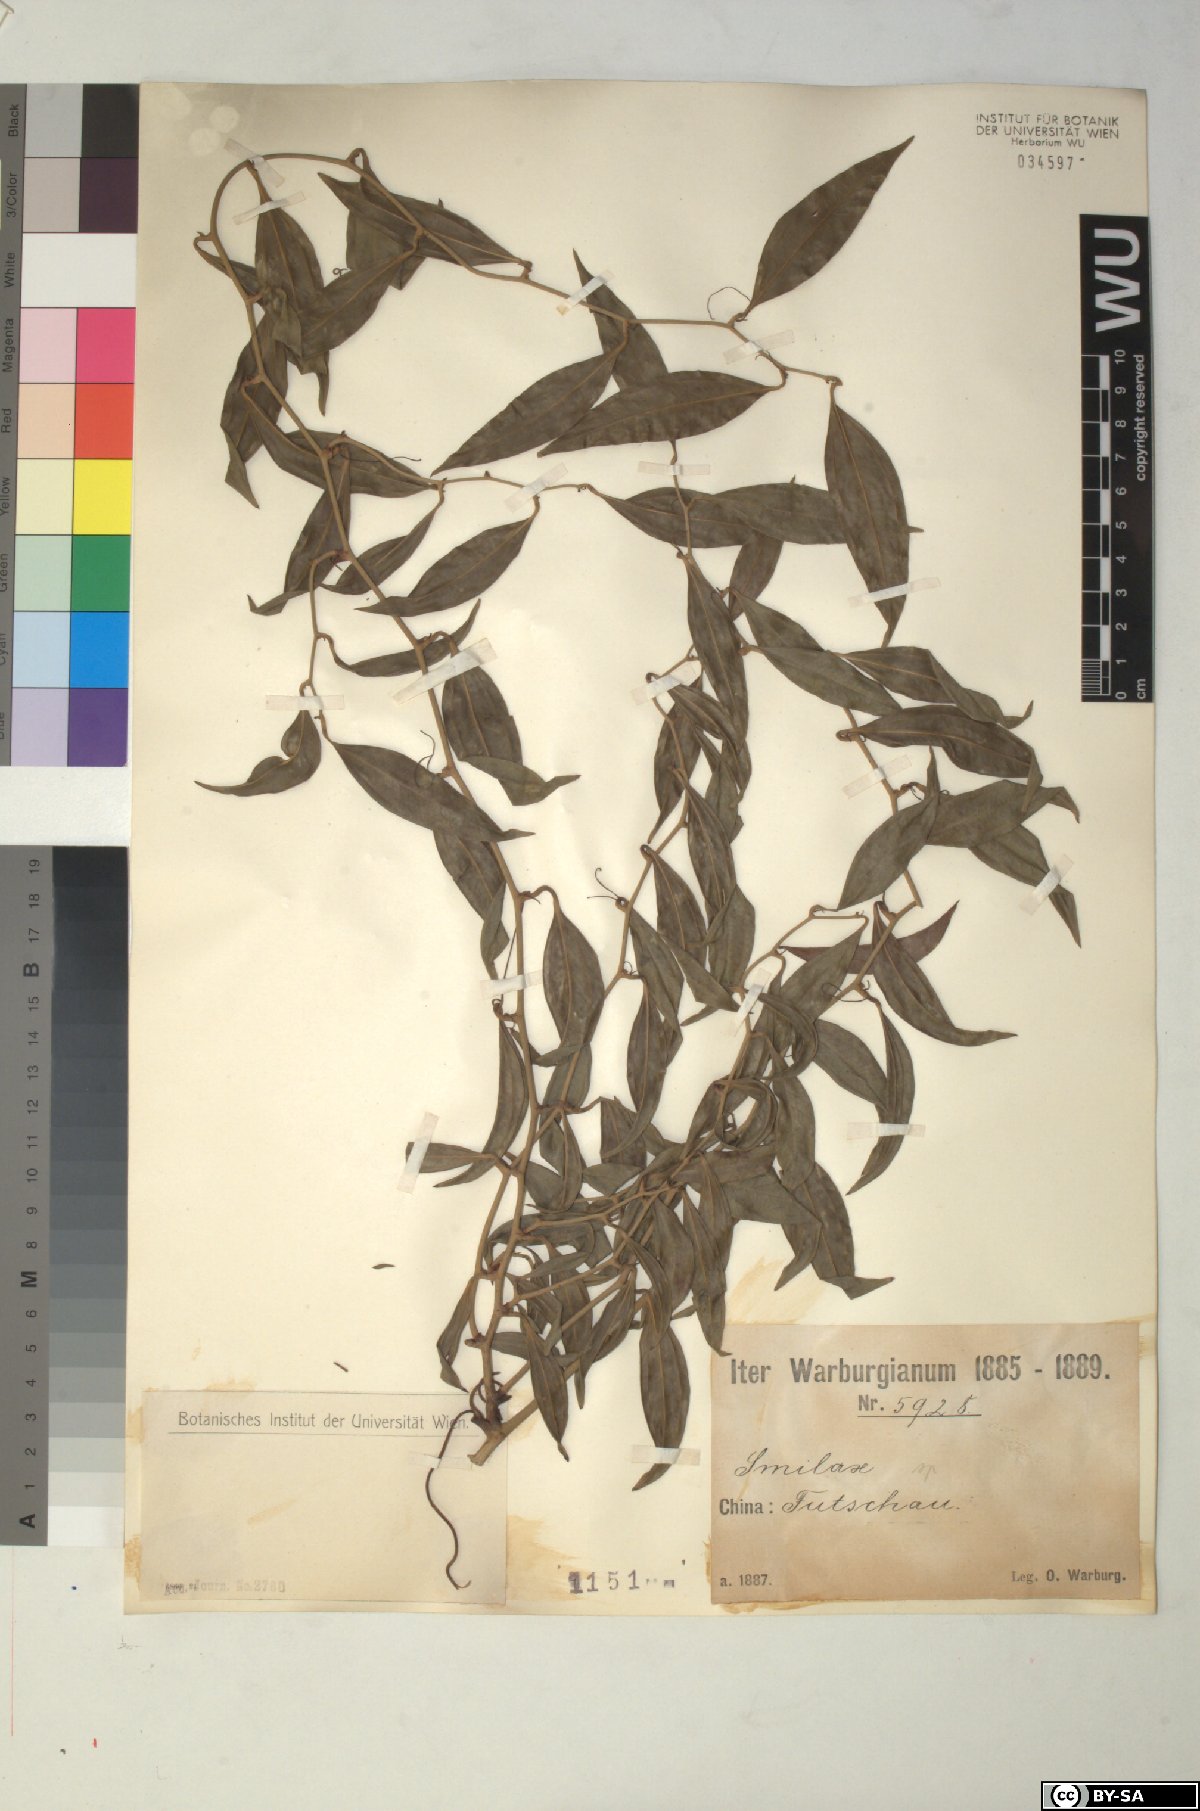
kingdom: Plantae
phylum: Tracheophyta
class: Liliopsida
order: Liliales
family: Smilacaceae
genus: Smilax
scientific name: Smilax
